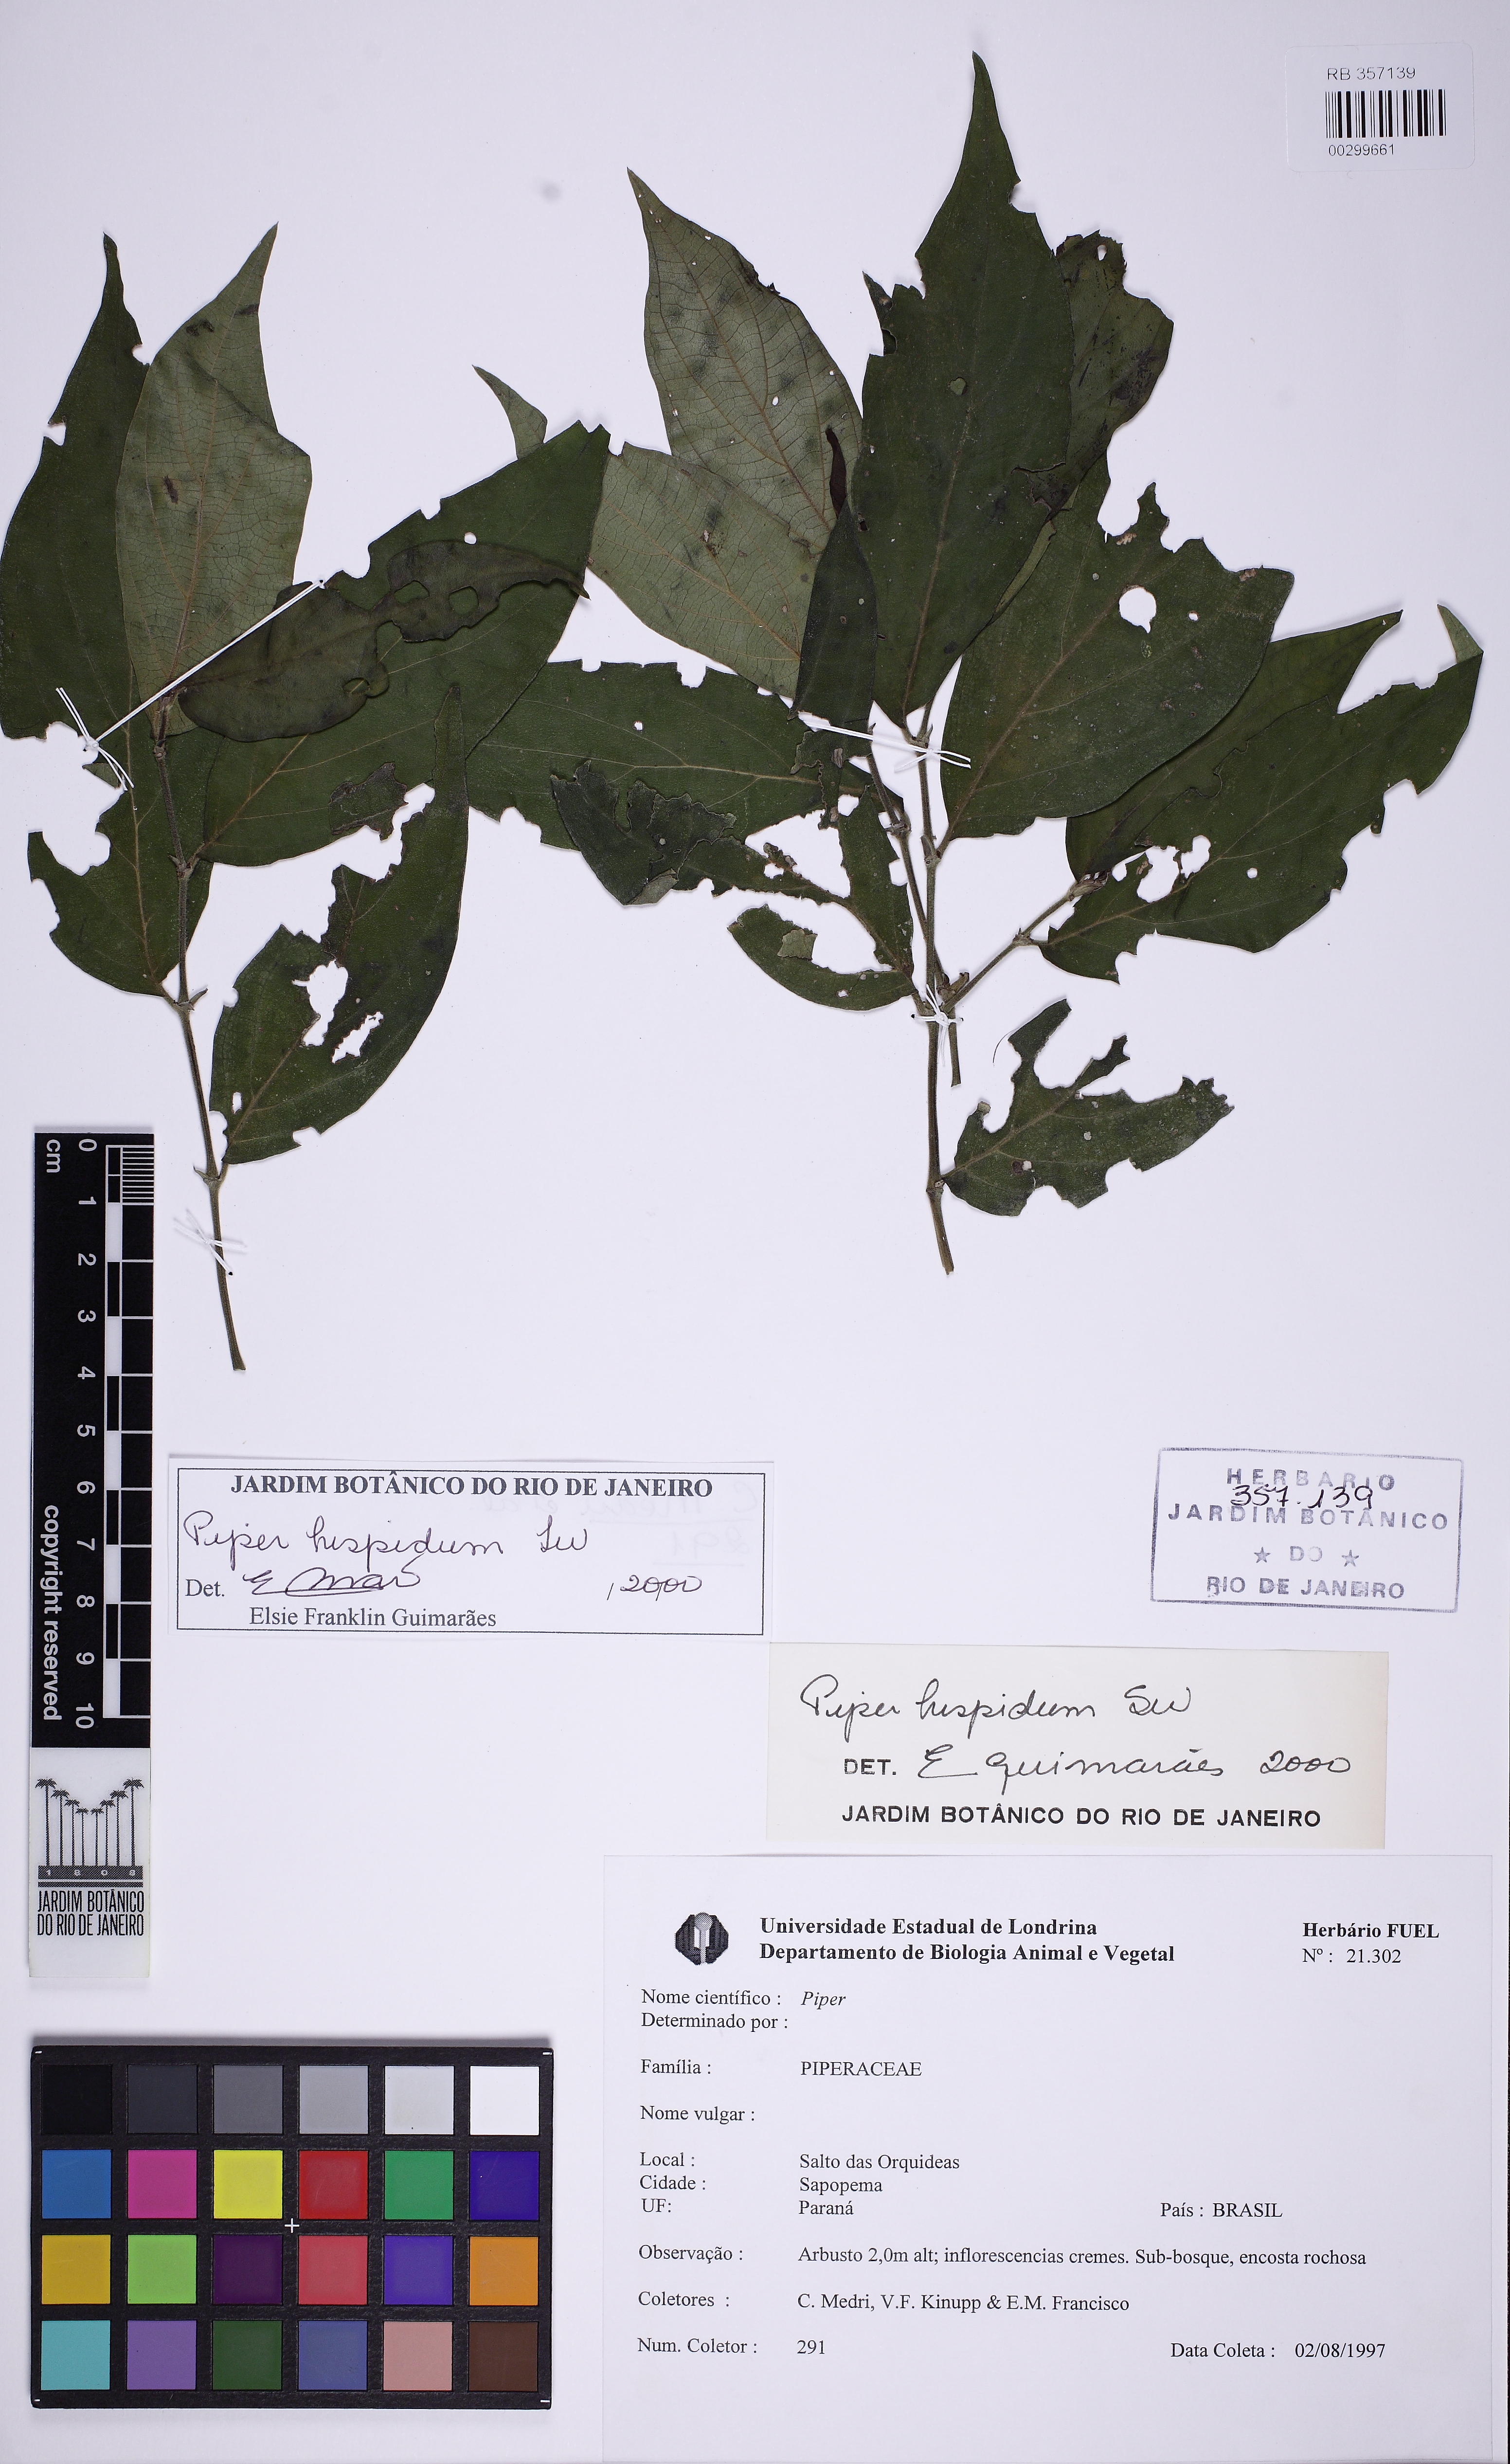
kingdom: Plantae
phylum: Tracheophyta
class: Magnoliopsida
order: Piperales
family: Piperaceae
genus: Piper
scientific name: Piper hispidum
